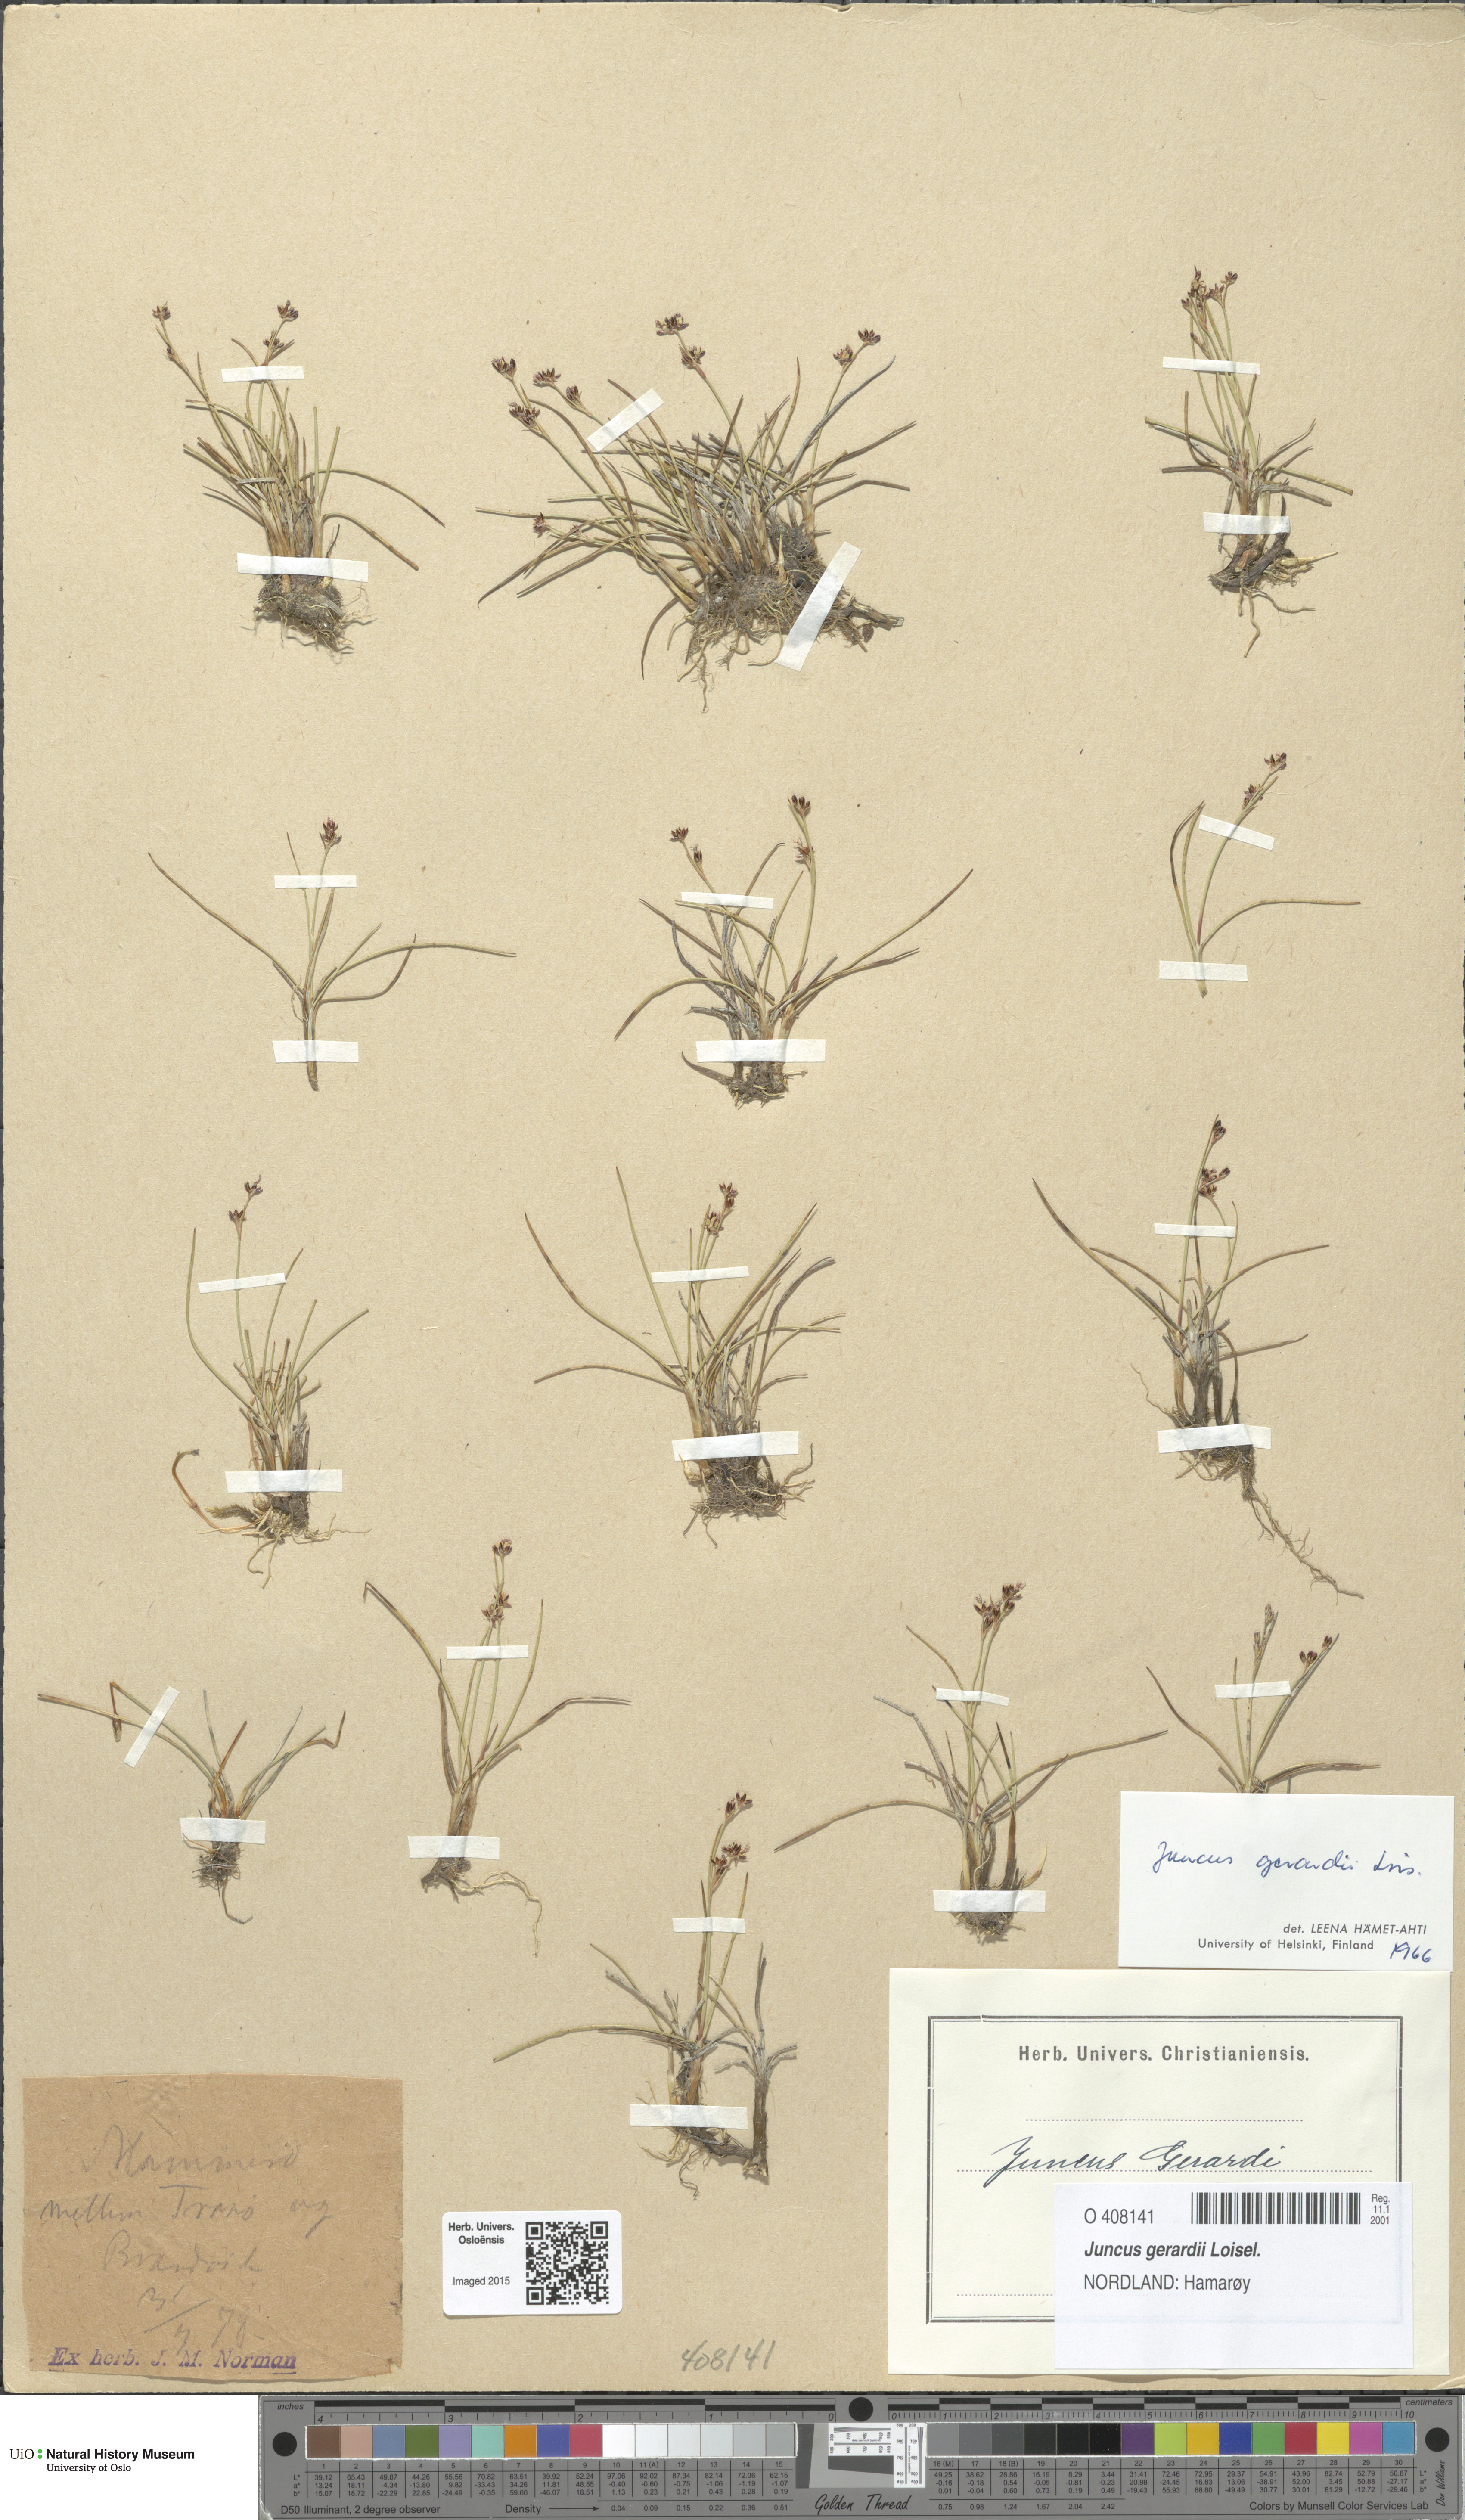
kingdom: Plantae
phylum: Tracheophyta
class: Liliopsida
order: Poales
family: Juncaceae
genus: Juncus
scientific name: Juncus gerardi
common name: Saltmarsh rush
